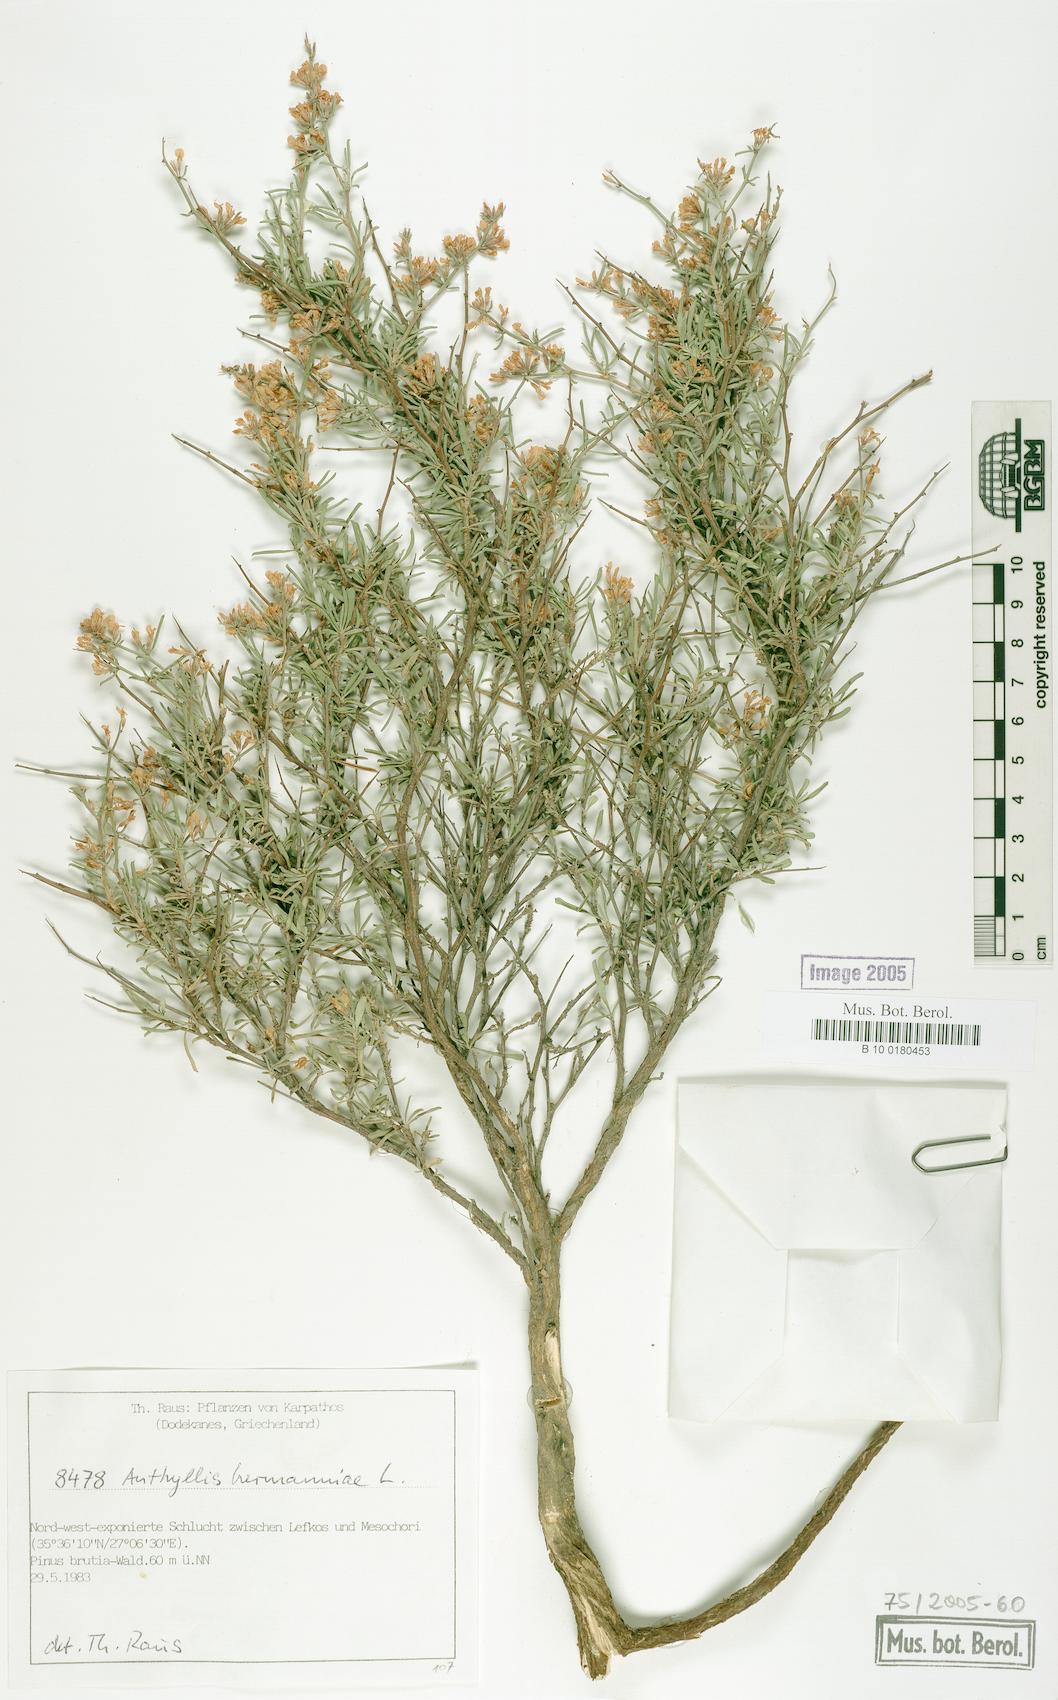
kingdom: Plantae
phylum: Tracheophyta
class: Magnoliopsida
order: Fabales
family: Fabaceae
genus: Anthyllis
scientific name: Anthyllis hermanniae
